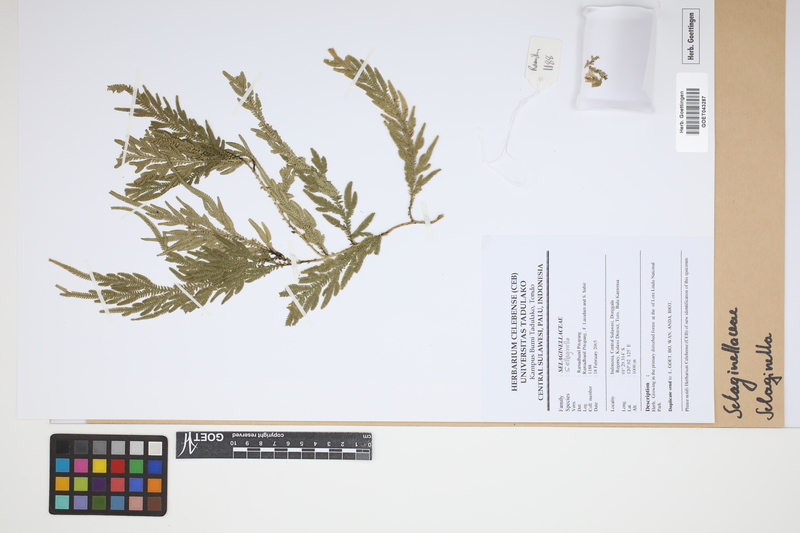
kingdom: Plantae
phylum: Tracheophyta
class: Lycopodiopsida
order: Selaginellales
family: Selaginellaceae
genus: Selaginella
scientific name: Selaginella
